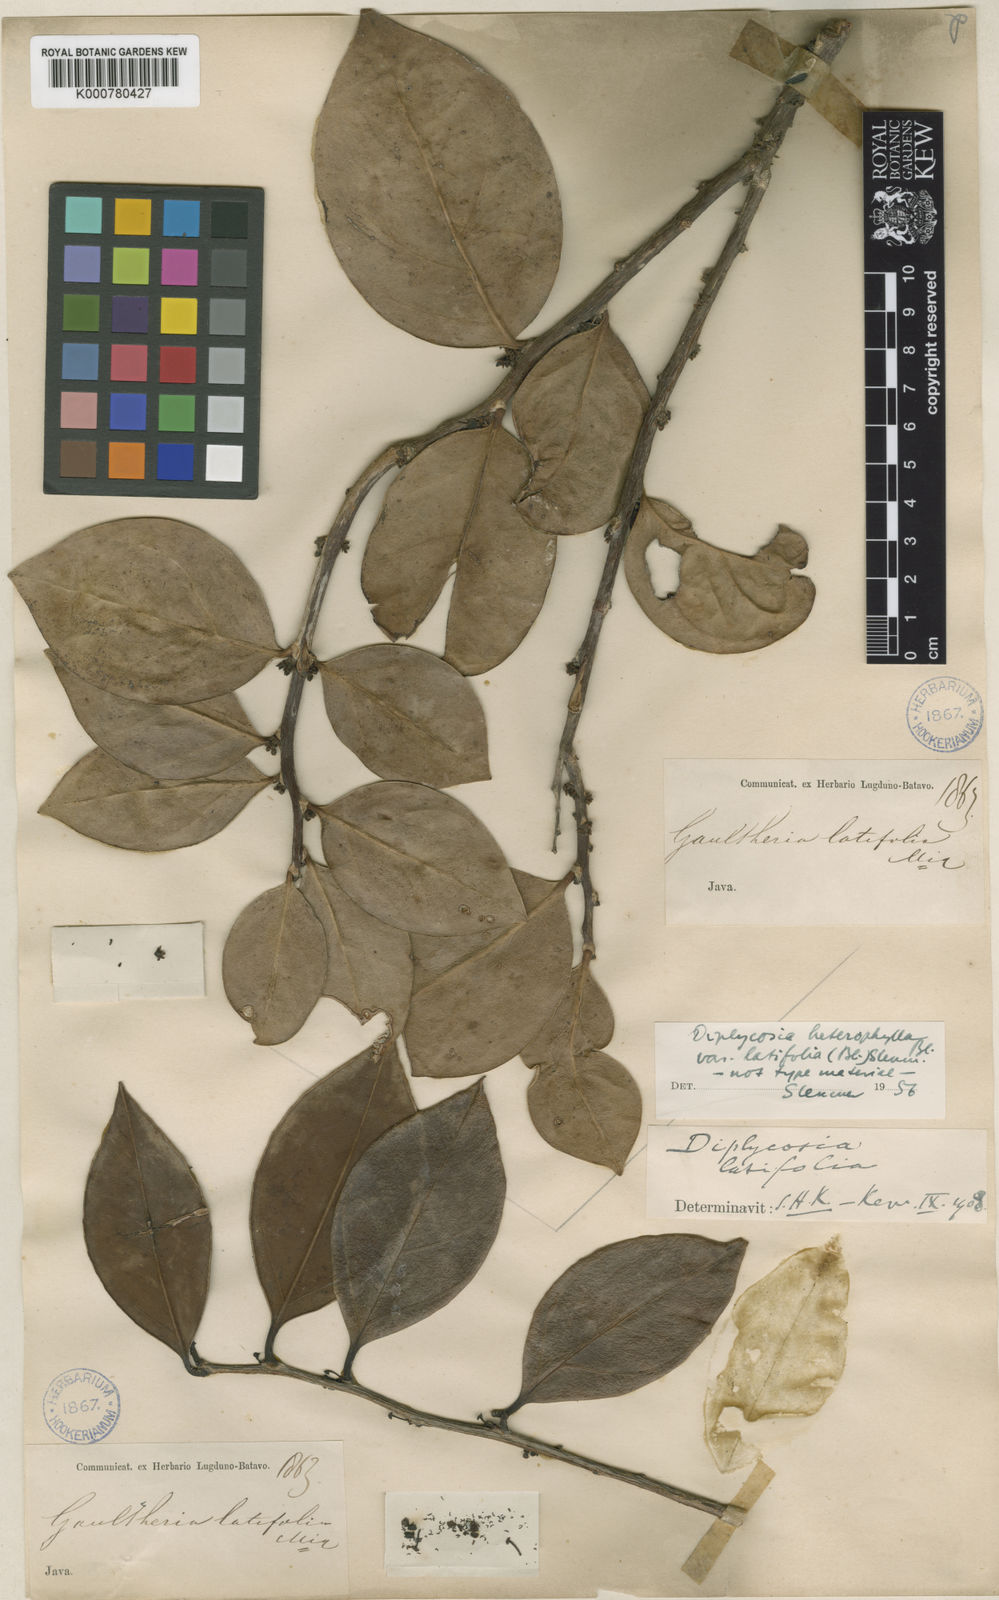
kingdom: Plantae
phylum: Tracheophyta
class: Magnoliopsida
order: Ericales
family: Ericaceae
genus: Gaultheria
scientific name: Gaultheria heterophylla
